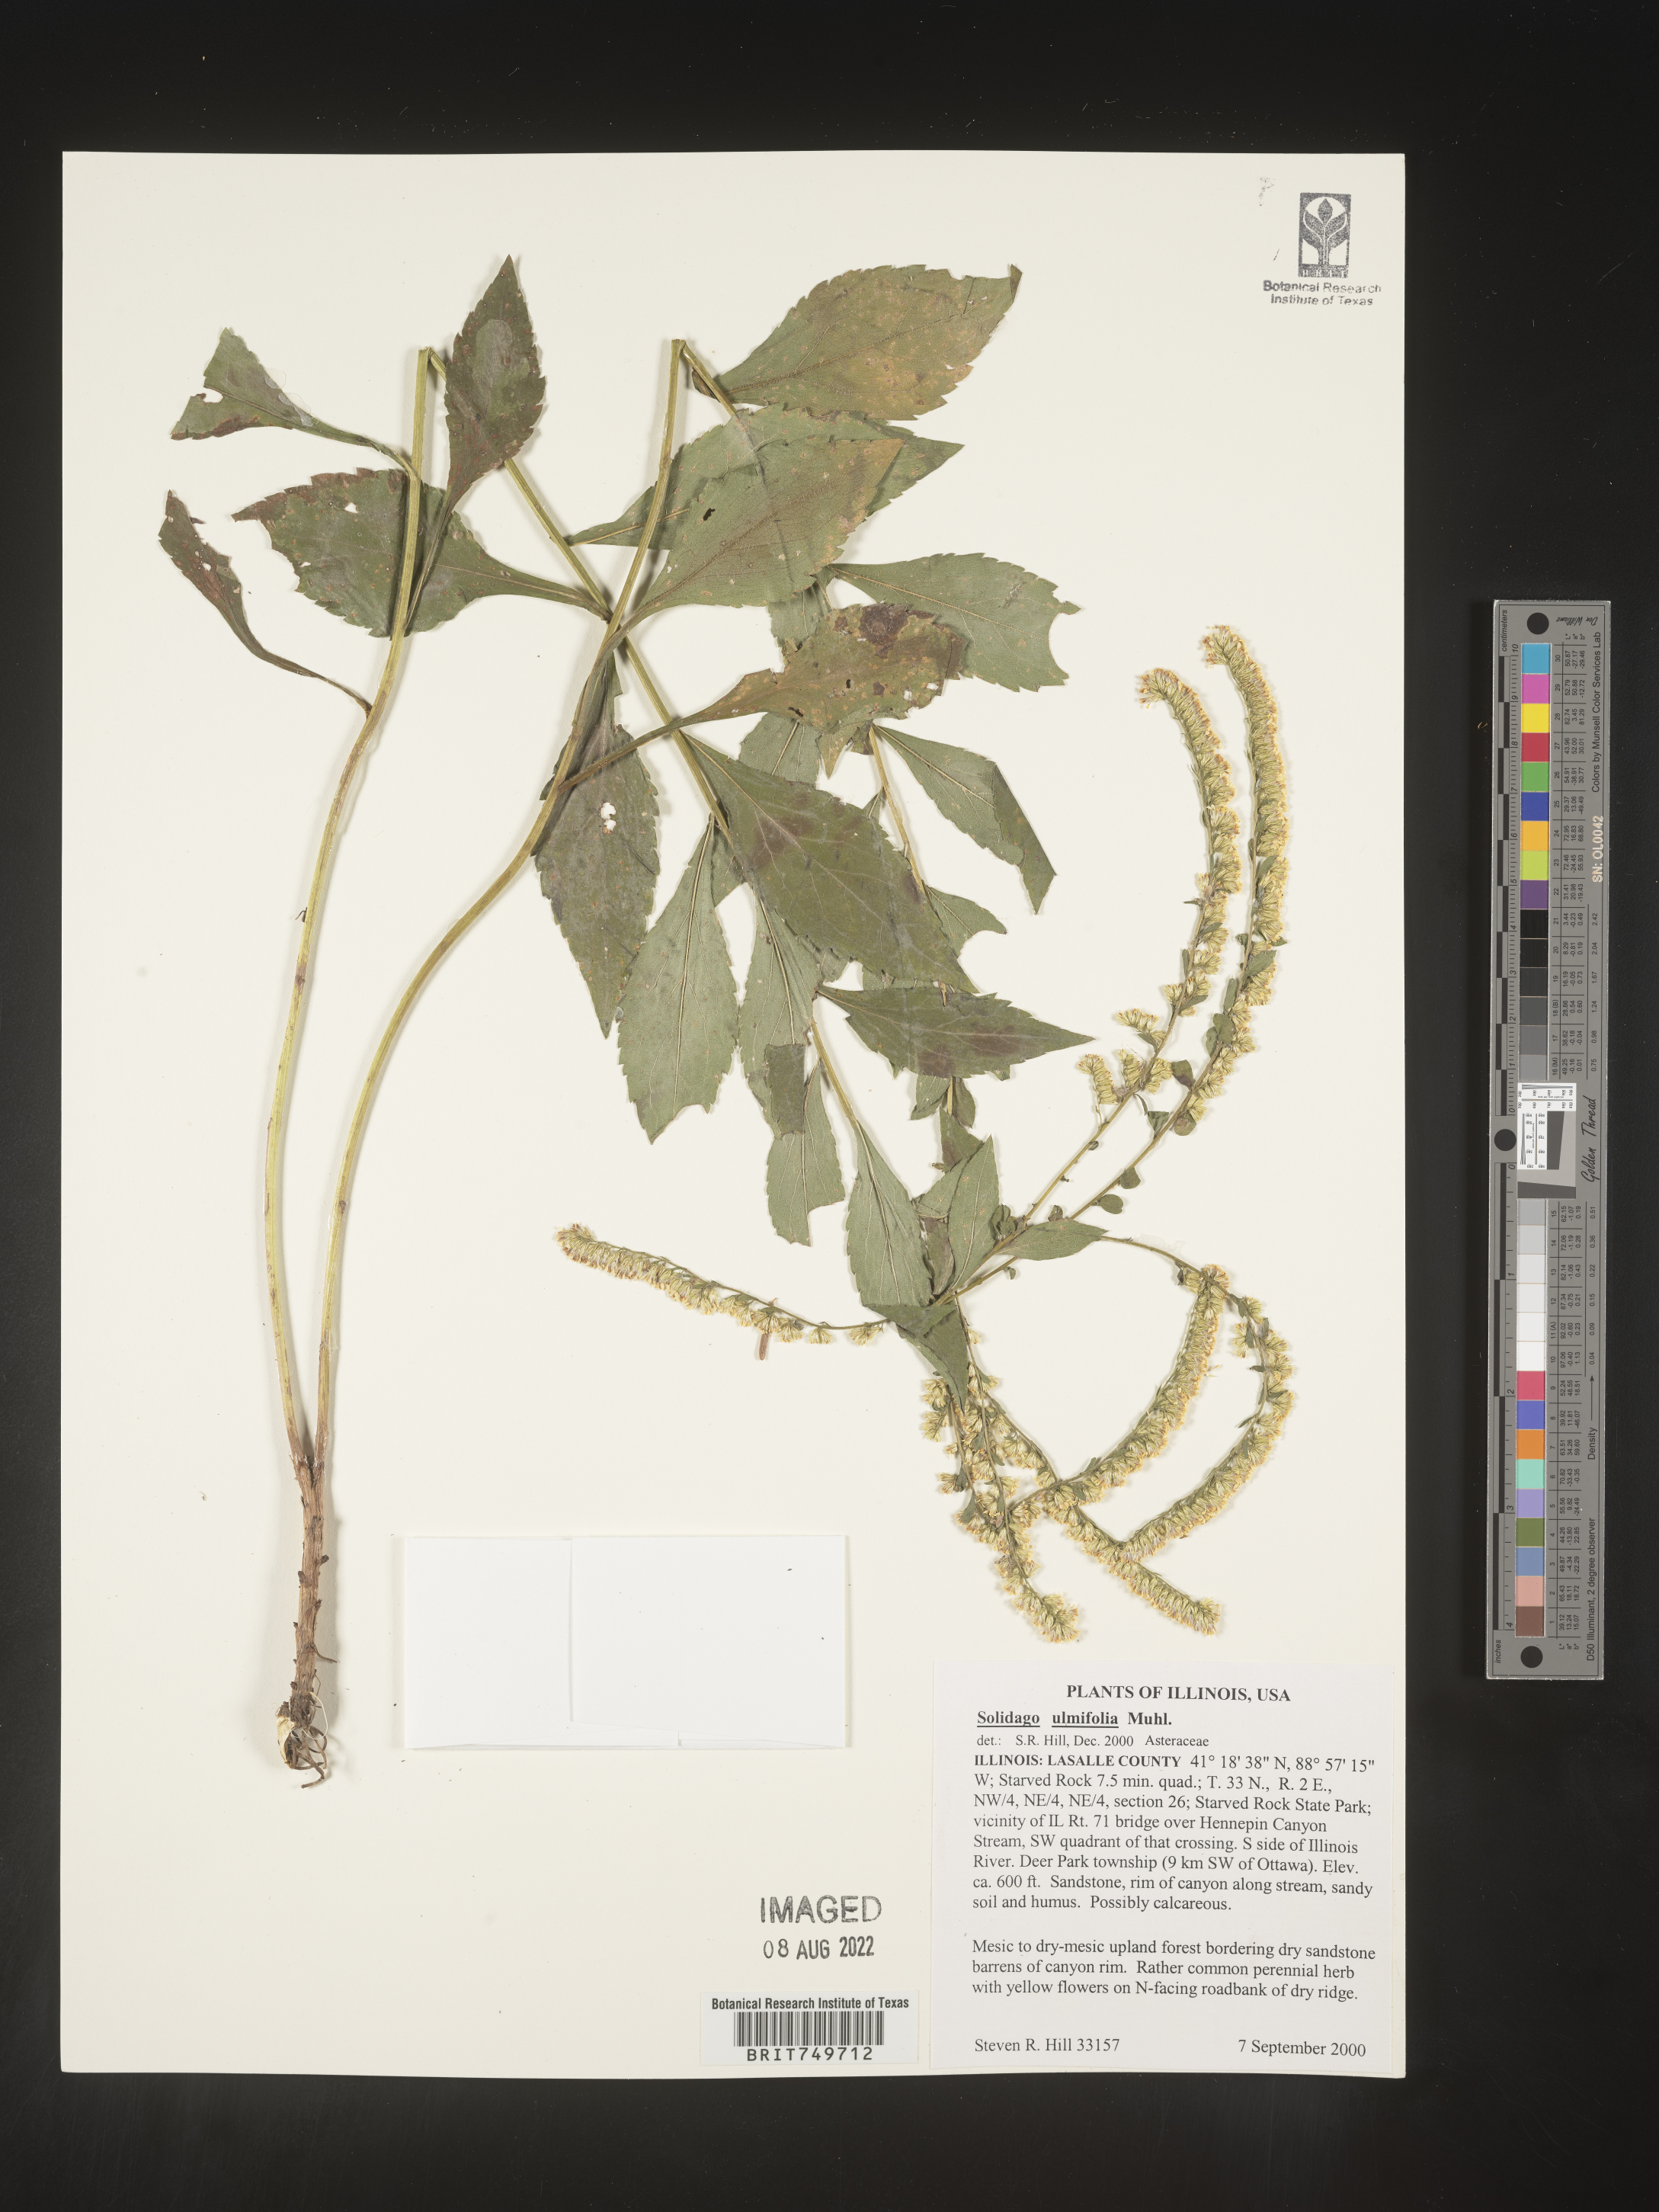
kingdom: Plantae
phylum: Tracheophyta
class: Magnoliopsida
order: Asterales
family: Asteraceae
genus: Solidago
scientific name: Solidago ulmifolia
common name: Elm-leaf goldenrod
